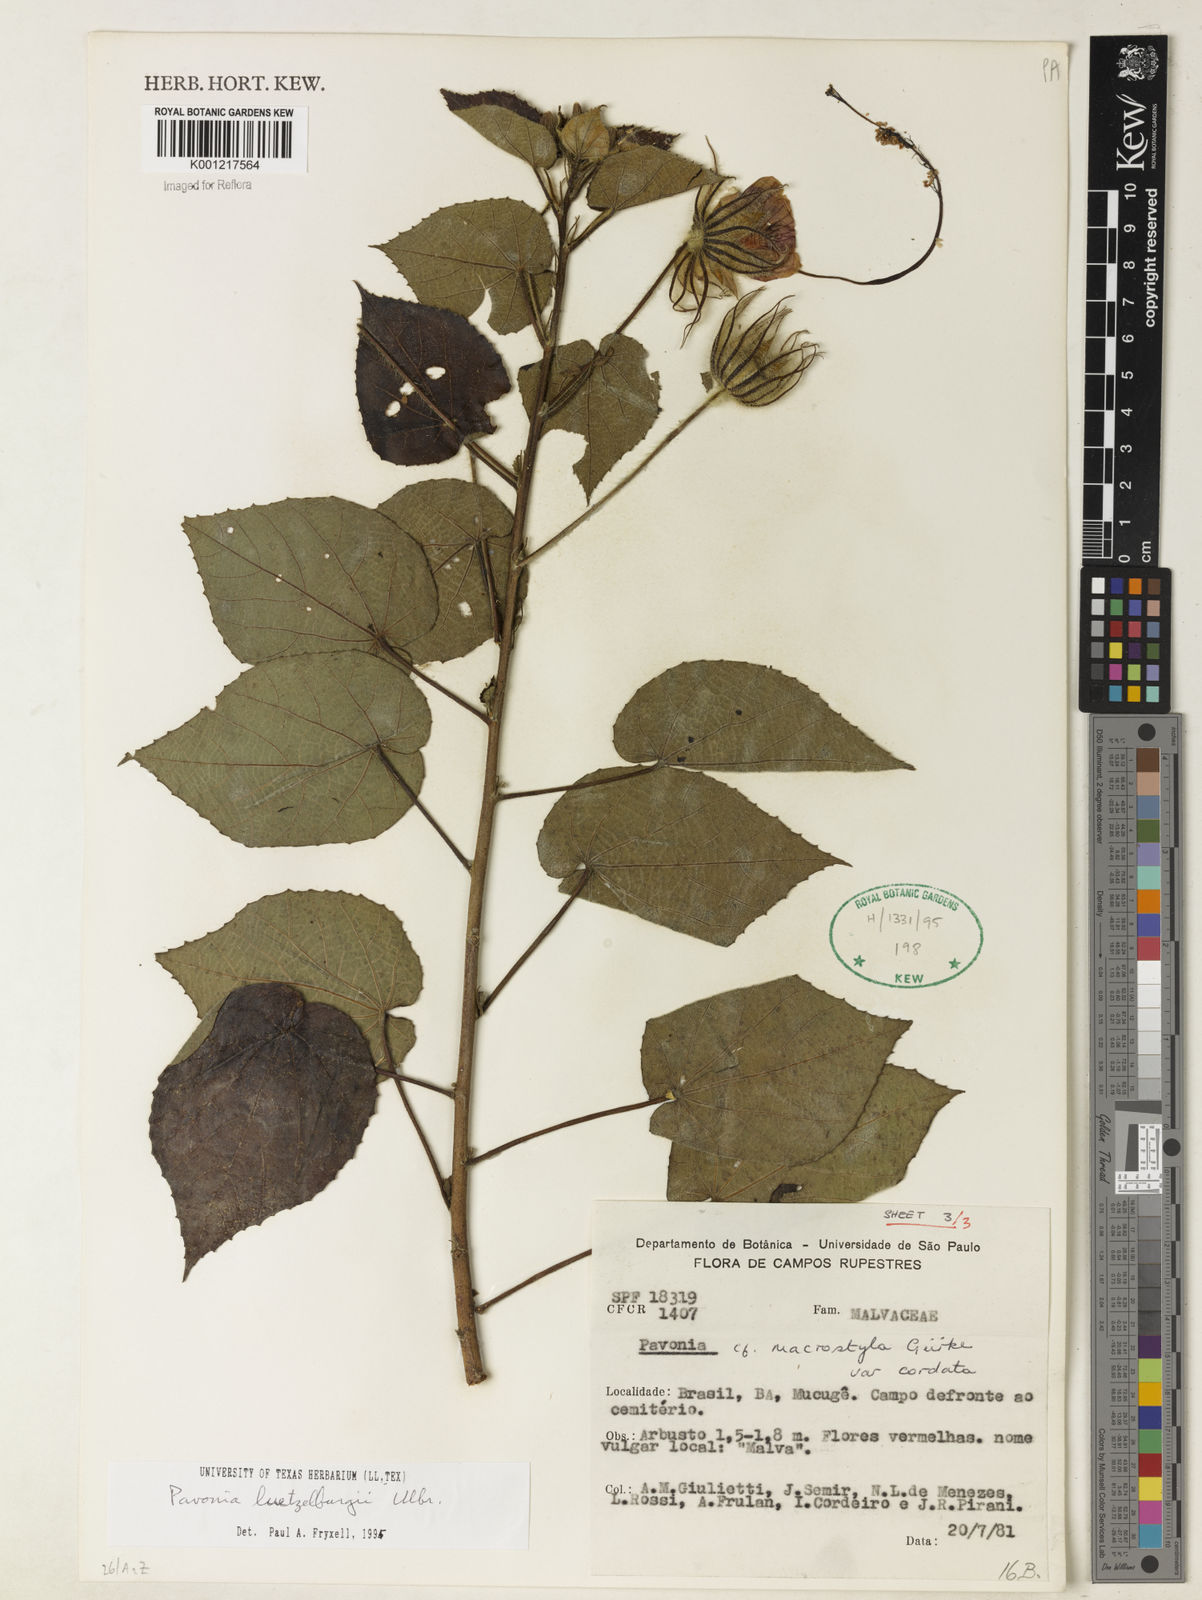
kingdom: Plantae
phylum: Tracheophyta
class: Magnoliopsida
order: Malvales
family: Malvaceae
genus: Pavonia
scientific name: Pavonia luetzelburgii
